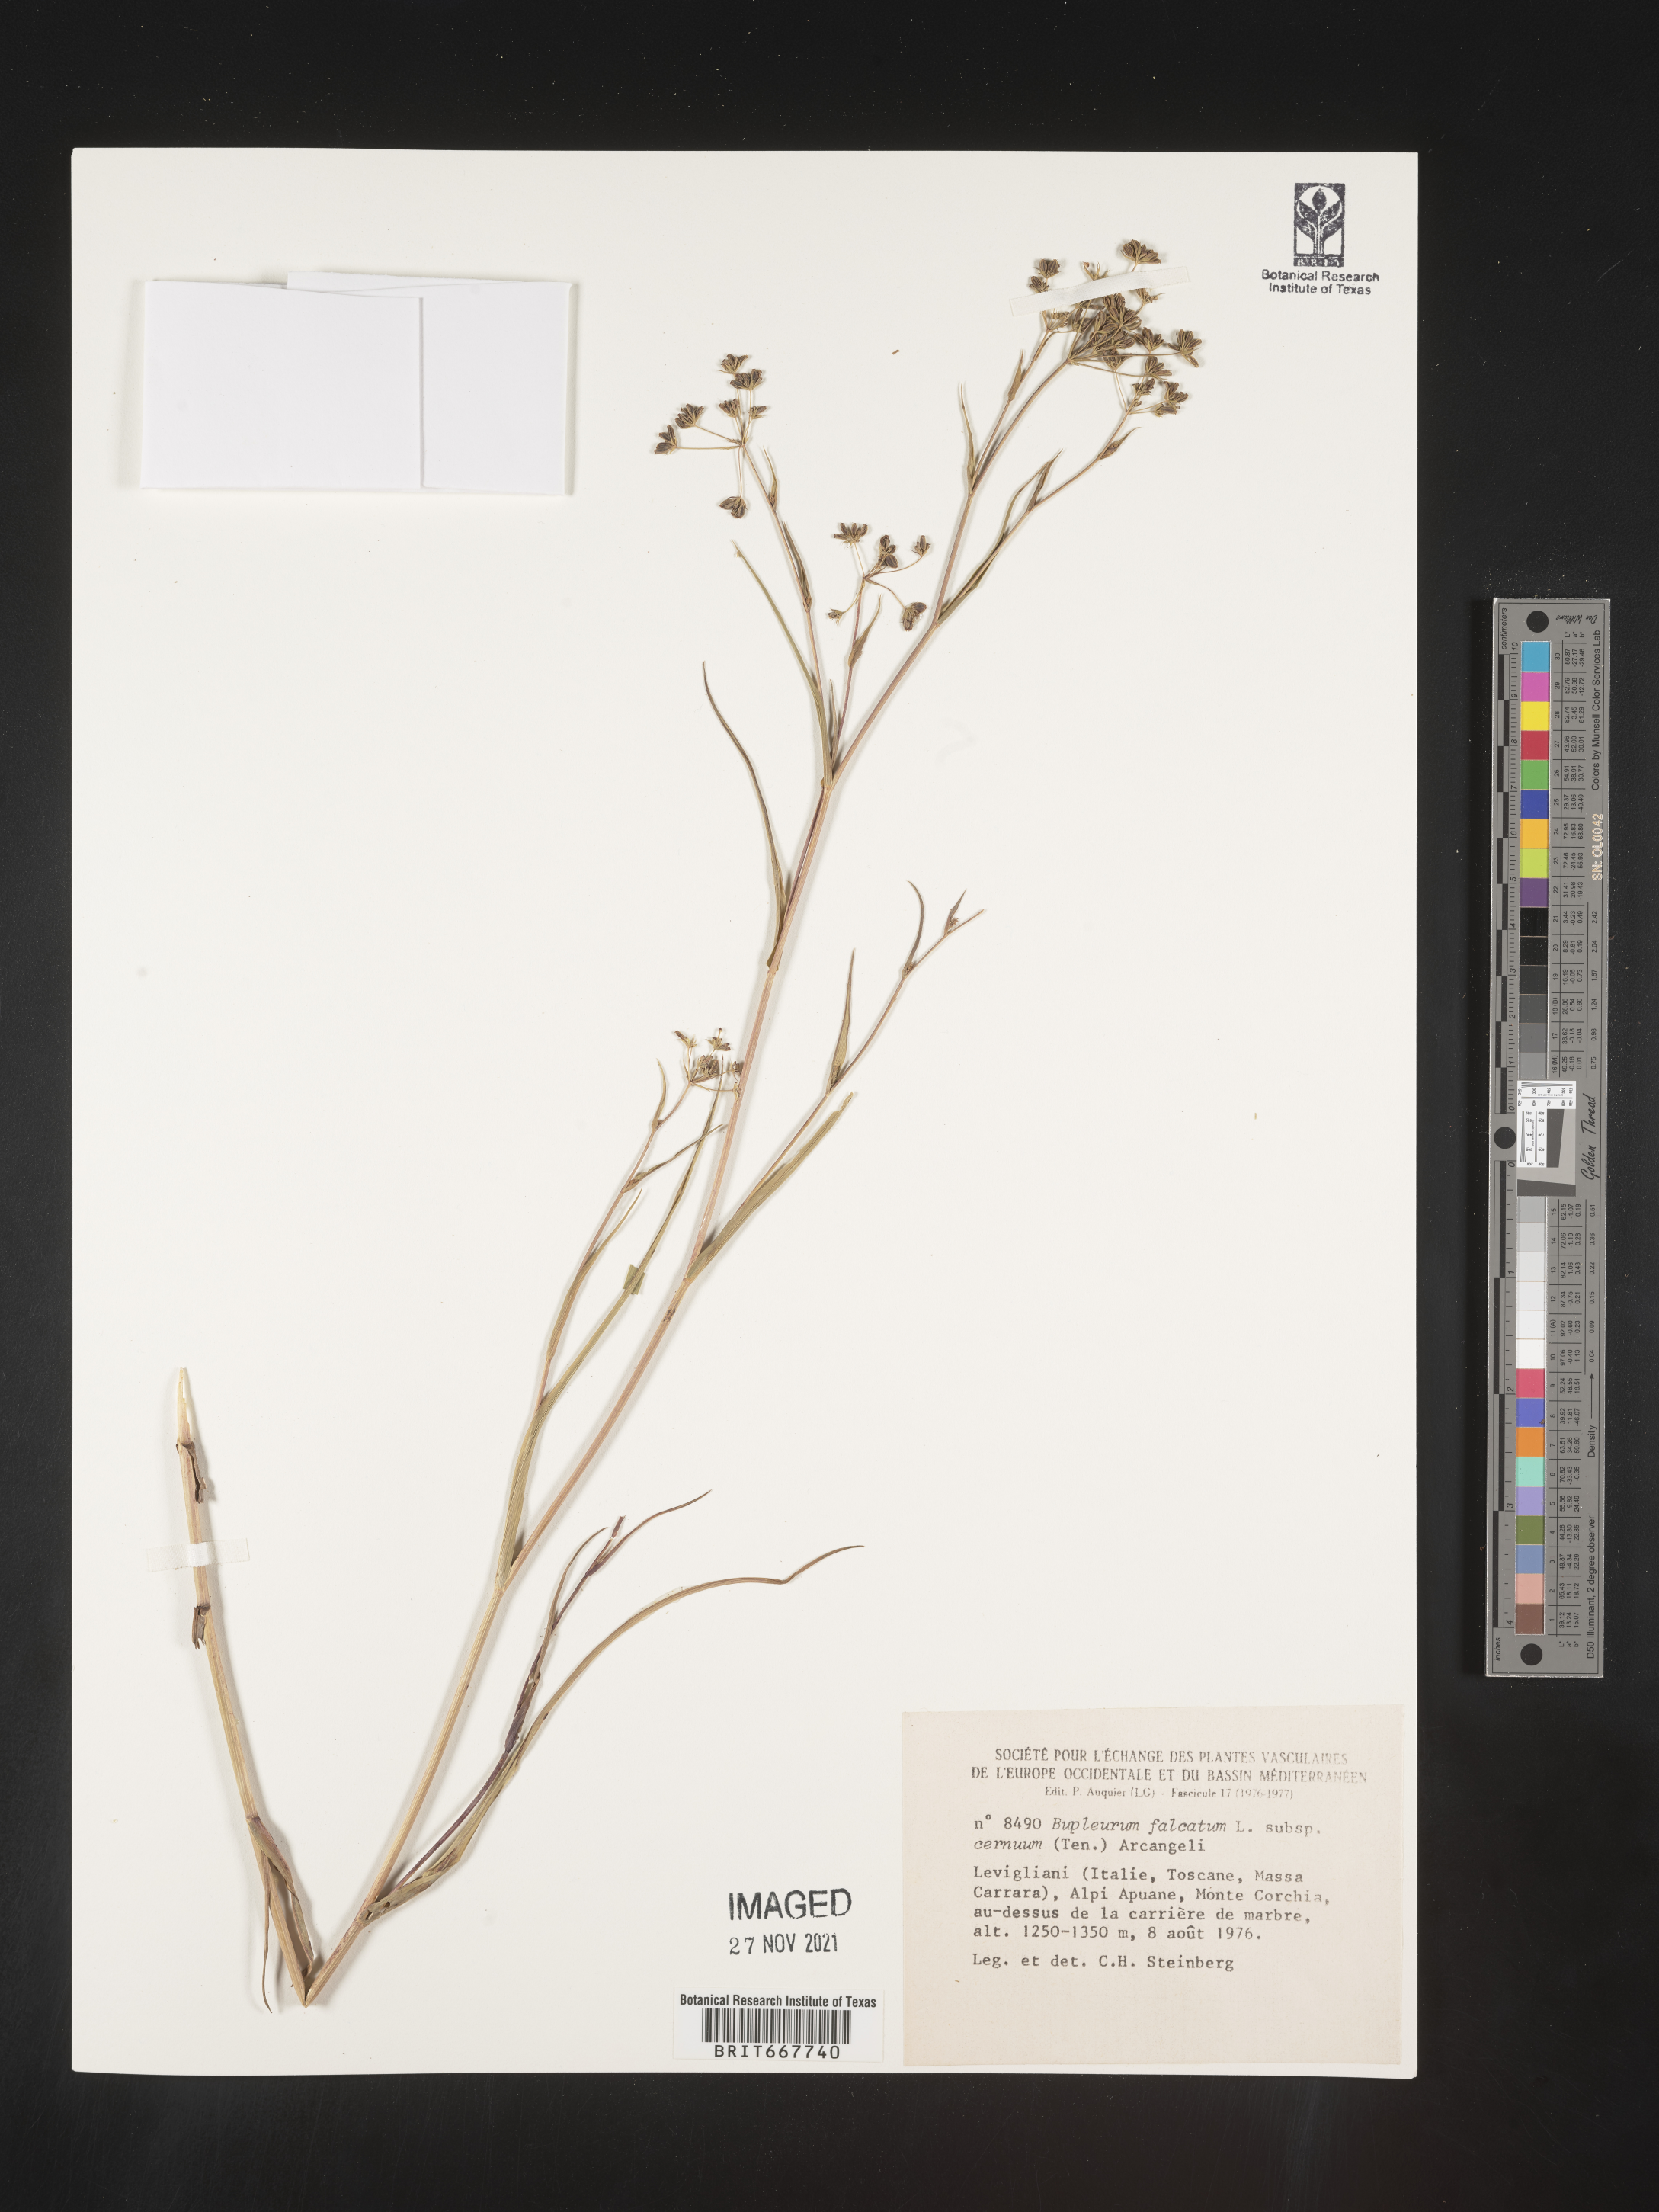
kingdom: Plantae
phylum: Tracheophyta
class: Magnoliopsida
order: Apiales
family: Apiaceae
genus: Bupleurum
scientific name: Bupleurum
